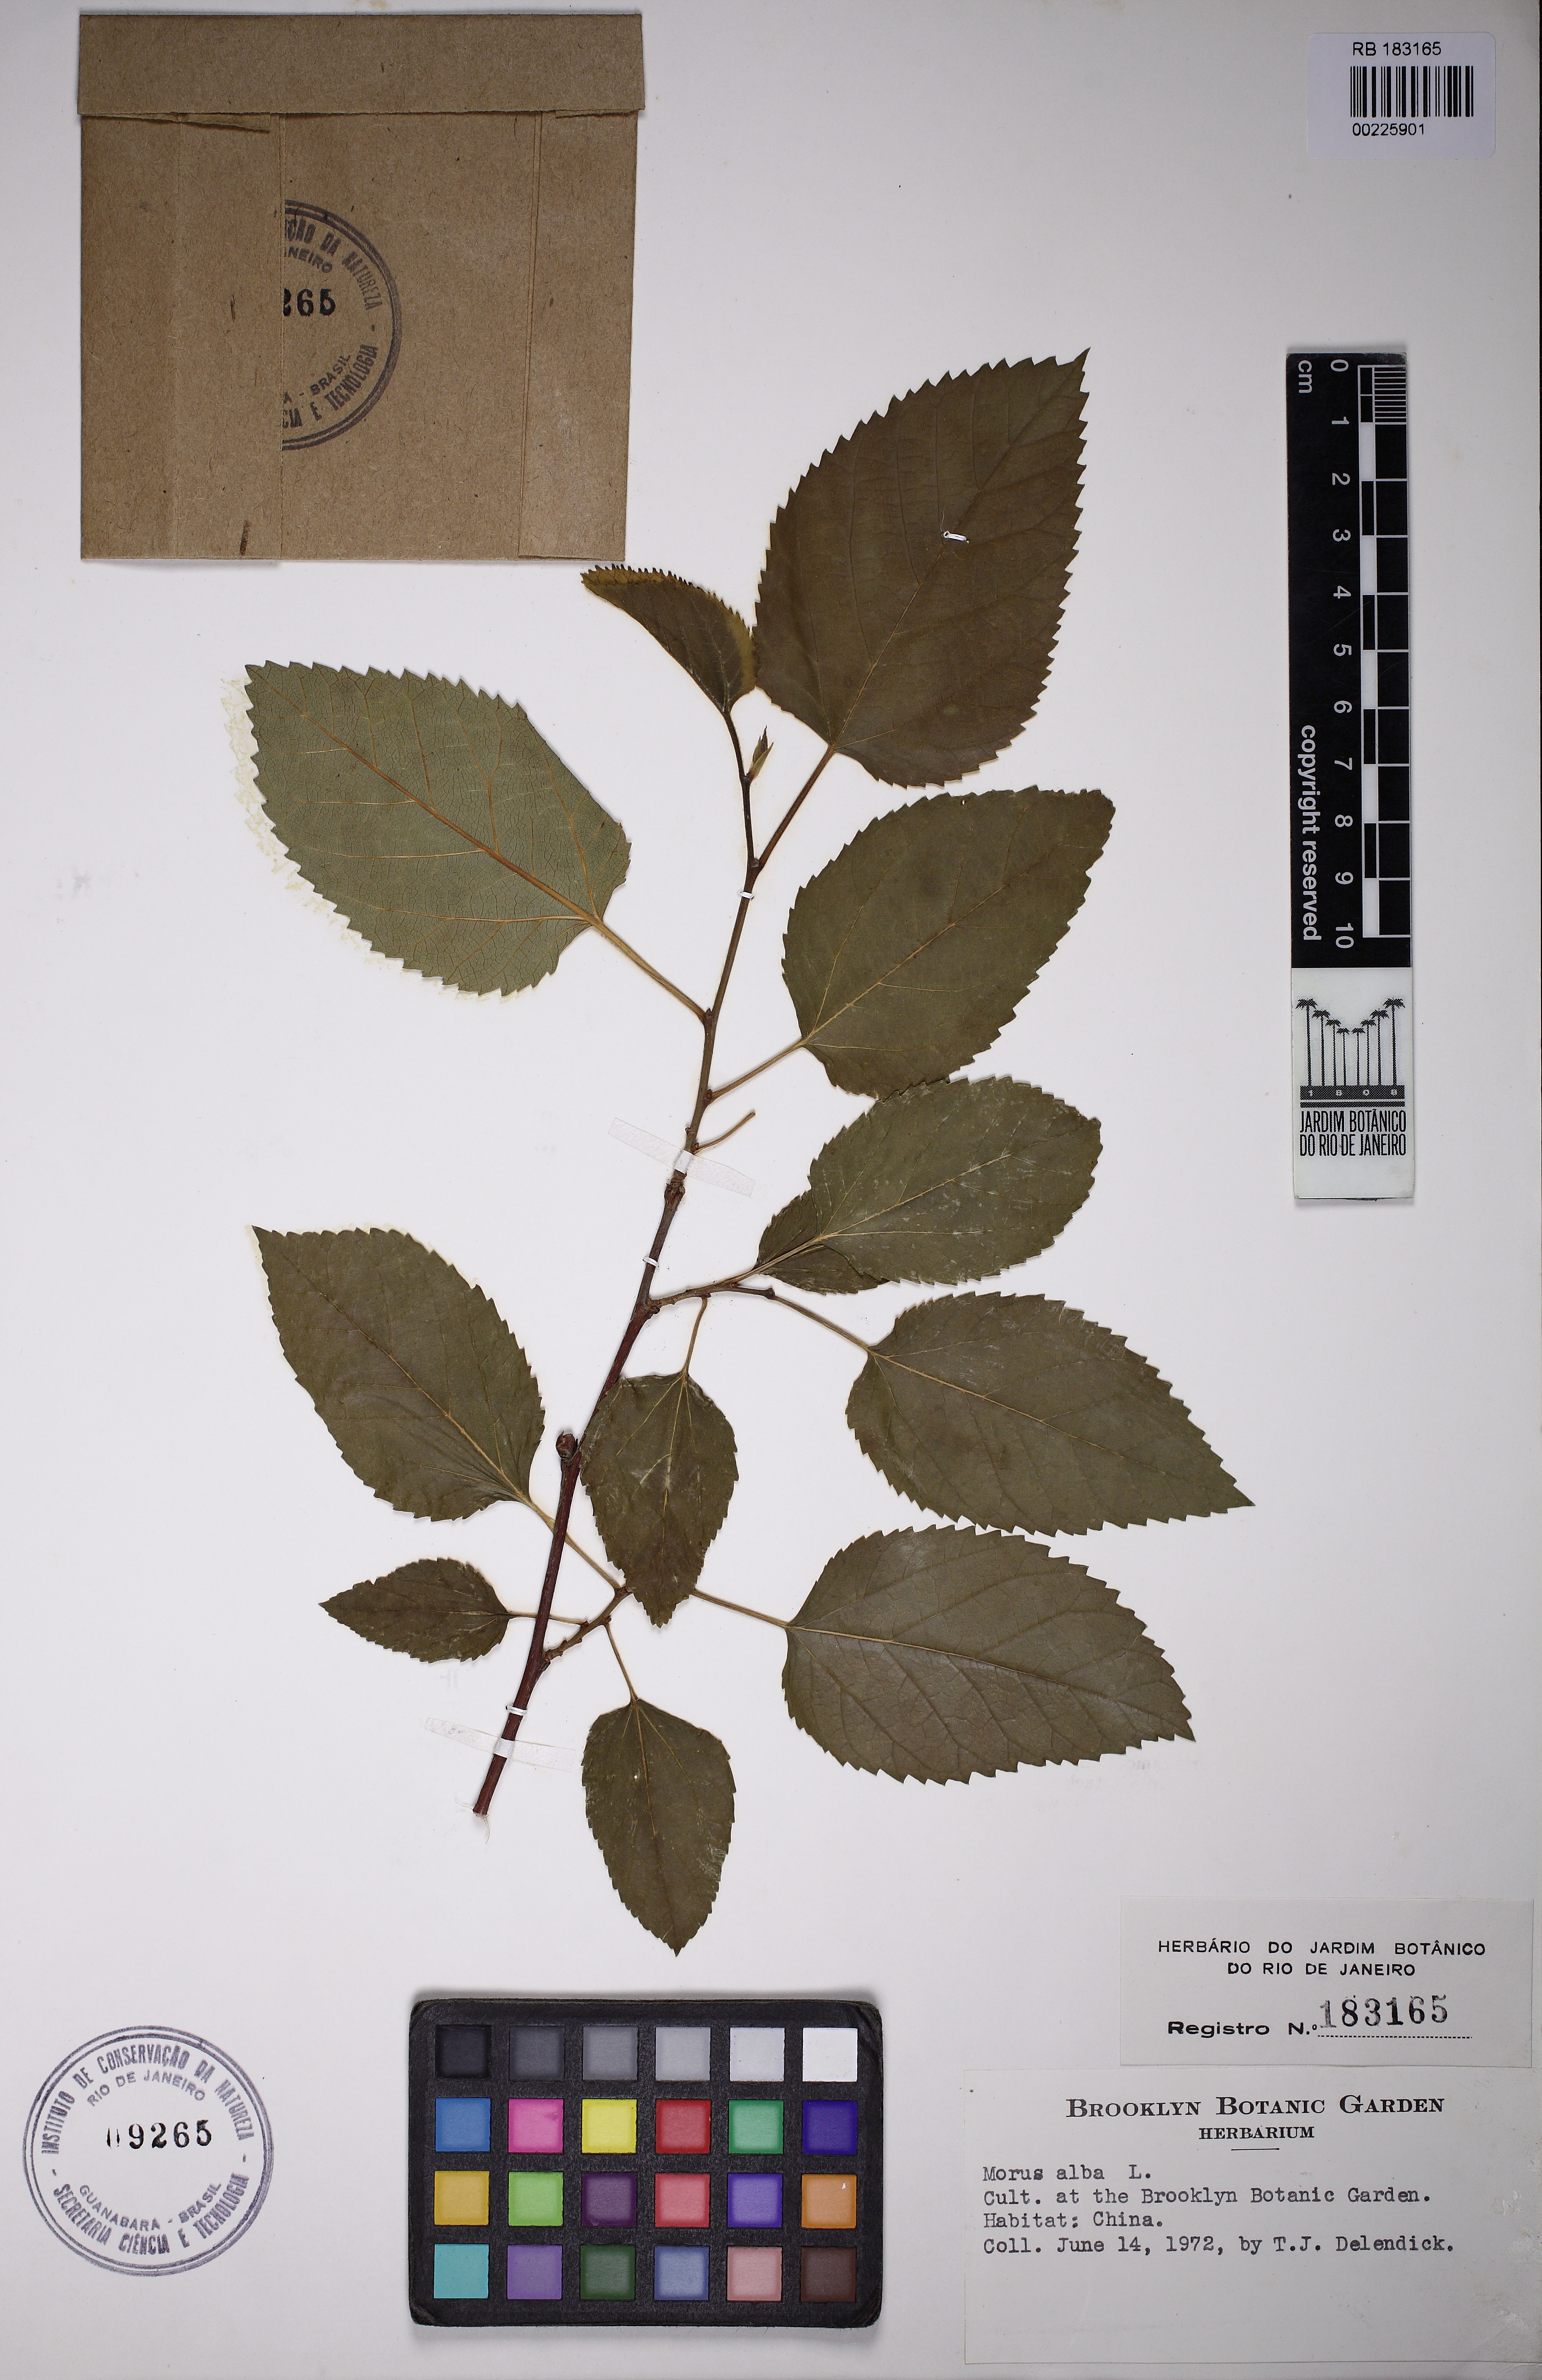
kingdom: Plantae
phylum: Tracheophyta
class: Magnoliopsida
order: Rosales
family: Moraceae
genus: Morus
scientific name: Morus alba
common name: White mulberry
